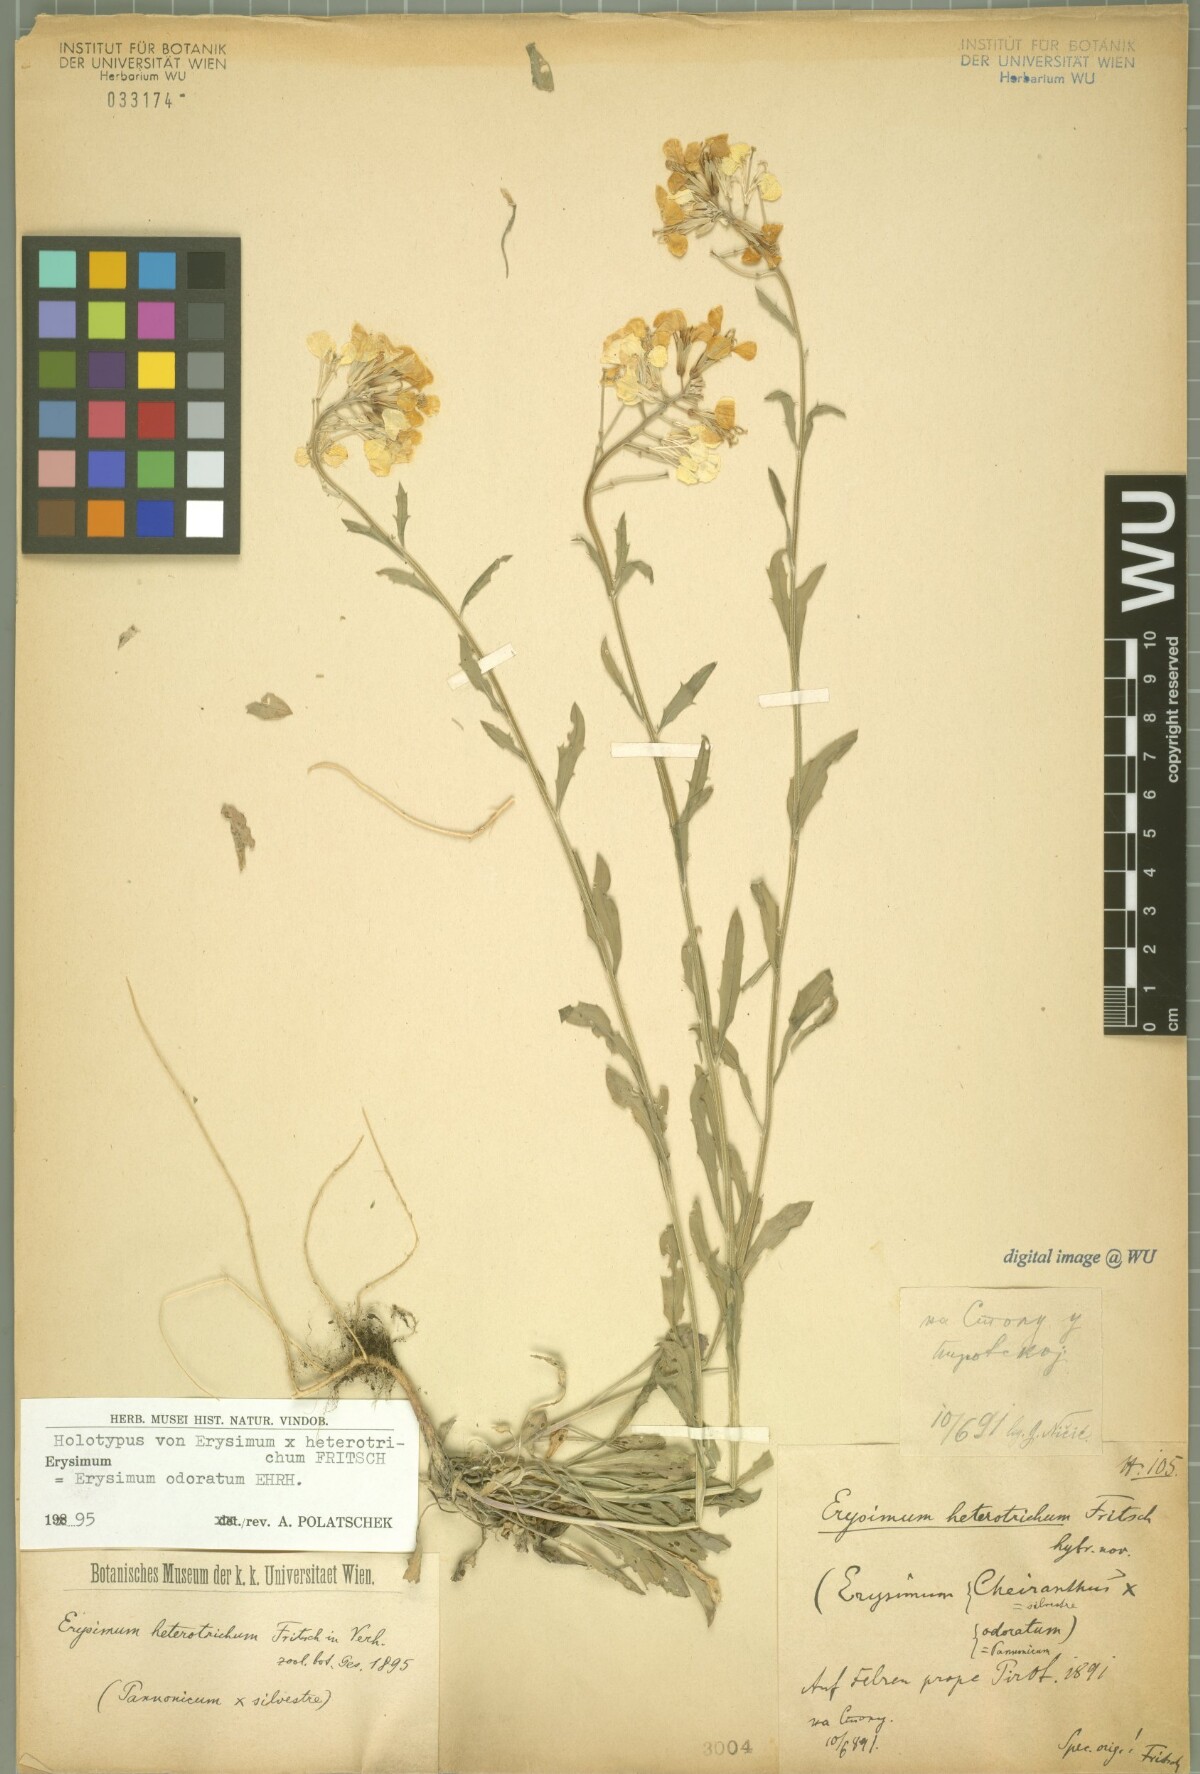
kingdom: Plantae
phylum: Tracheophyta
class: Magnoliopsida
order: Brassicales
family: Brassicaceae
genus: Erysimum
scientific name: Erysimum heterotrichum
